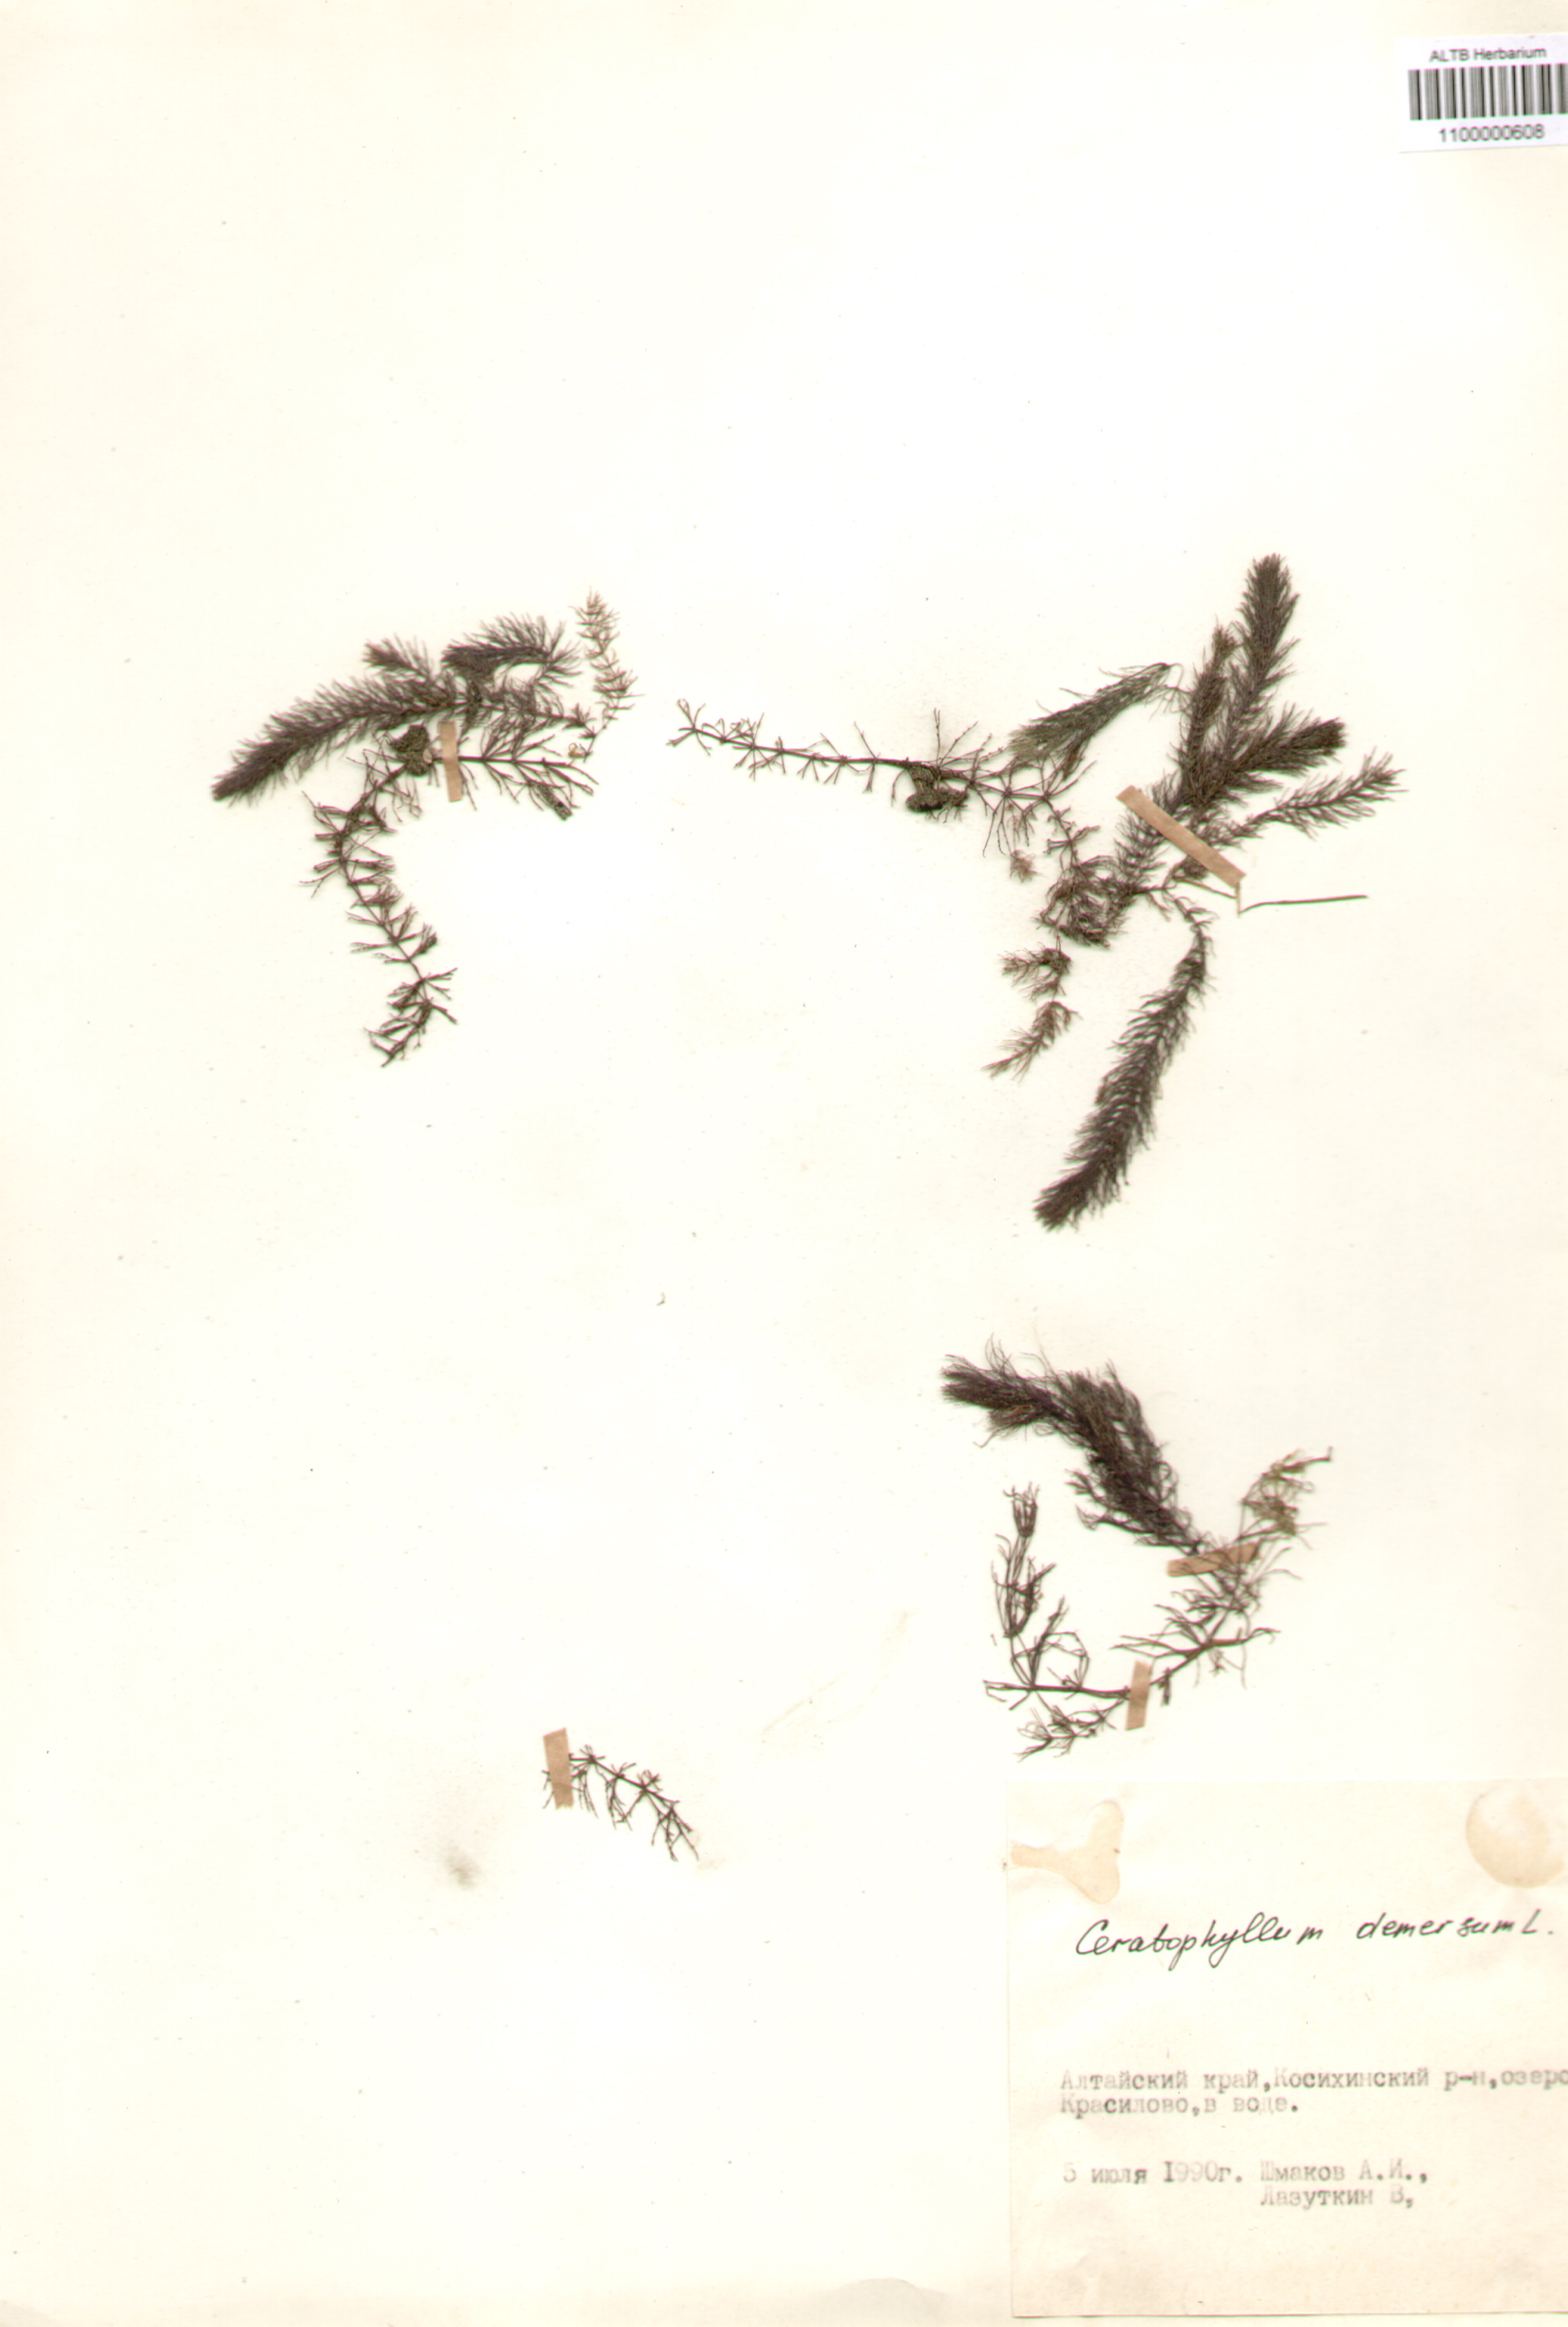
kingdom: Plantae
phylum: Tracheophyta
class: Magnoliopsida
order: Ceratophyllales
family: Ceratophyllaceae
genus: Ceratophyllum
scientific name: Ceratophyllum demersum
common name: Rigid hornwort
